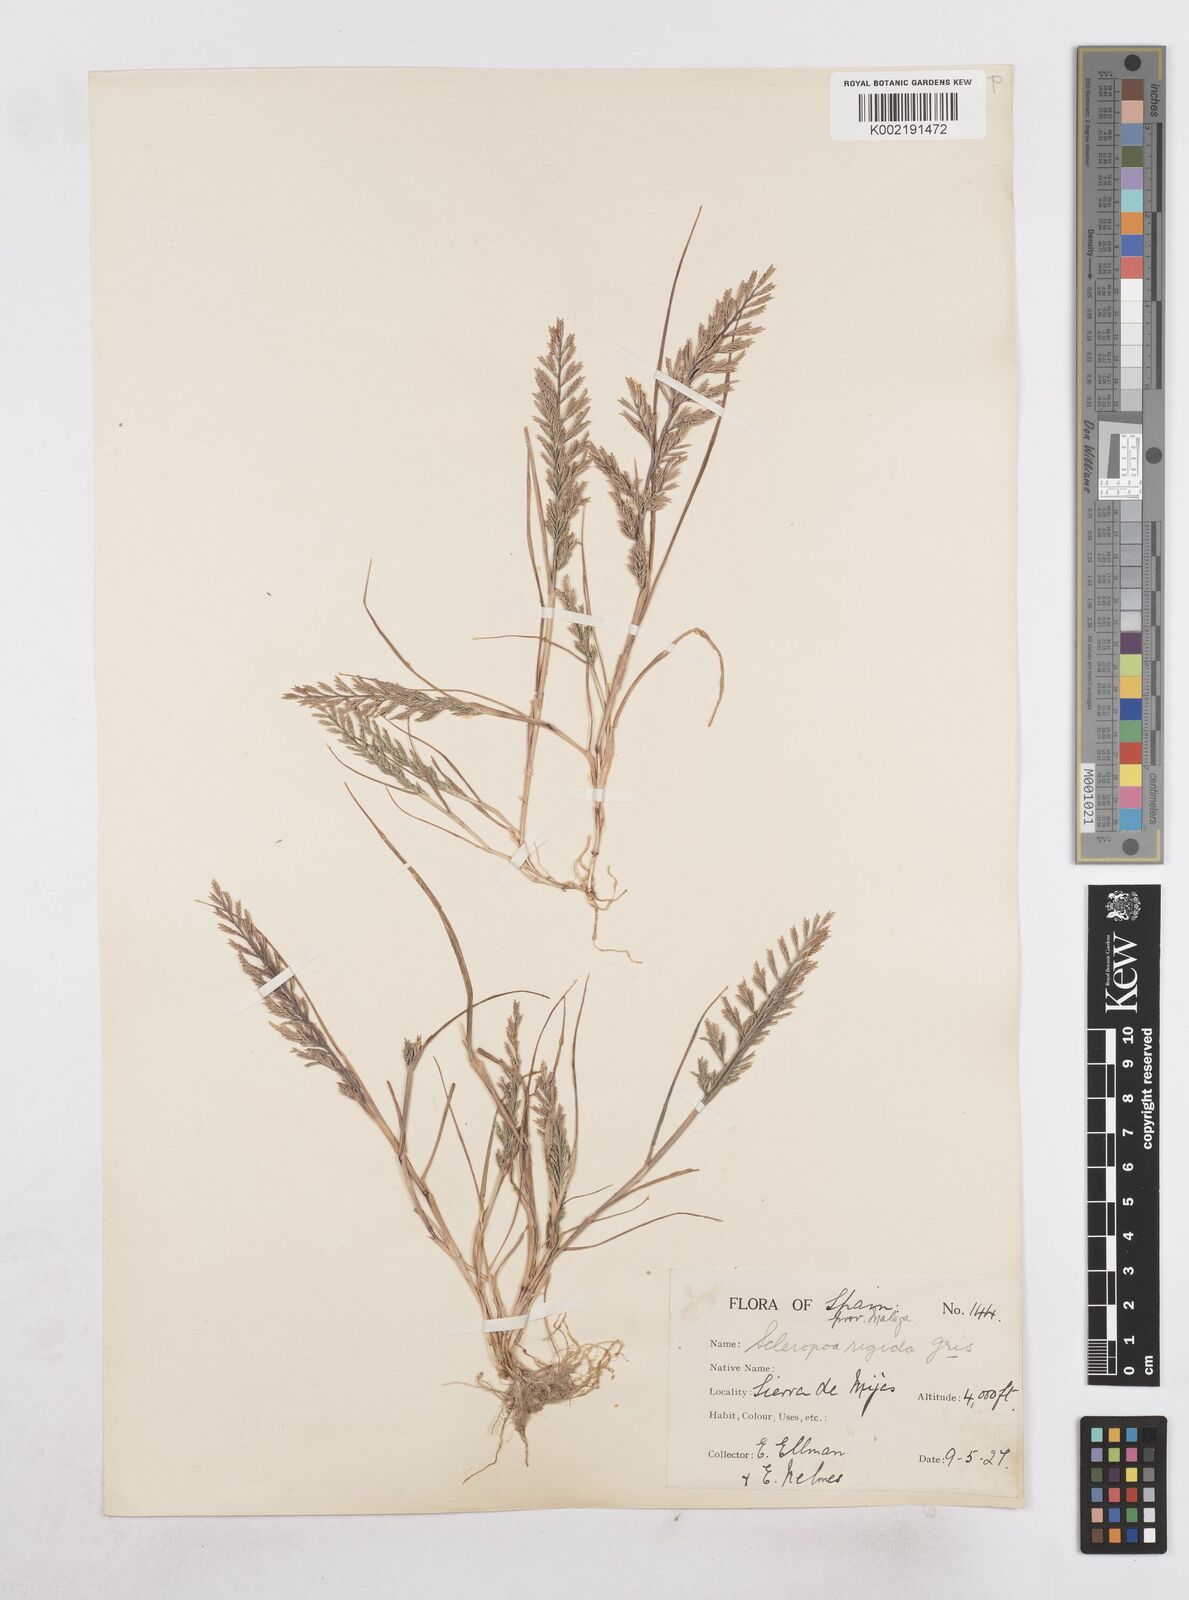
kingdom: Plantae
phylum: Tracheophyta
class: Liliopsida
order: Poales
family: Poaceae
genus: Catapodium
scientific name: Catapodium rigidum
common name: Fern-grass
